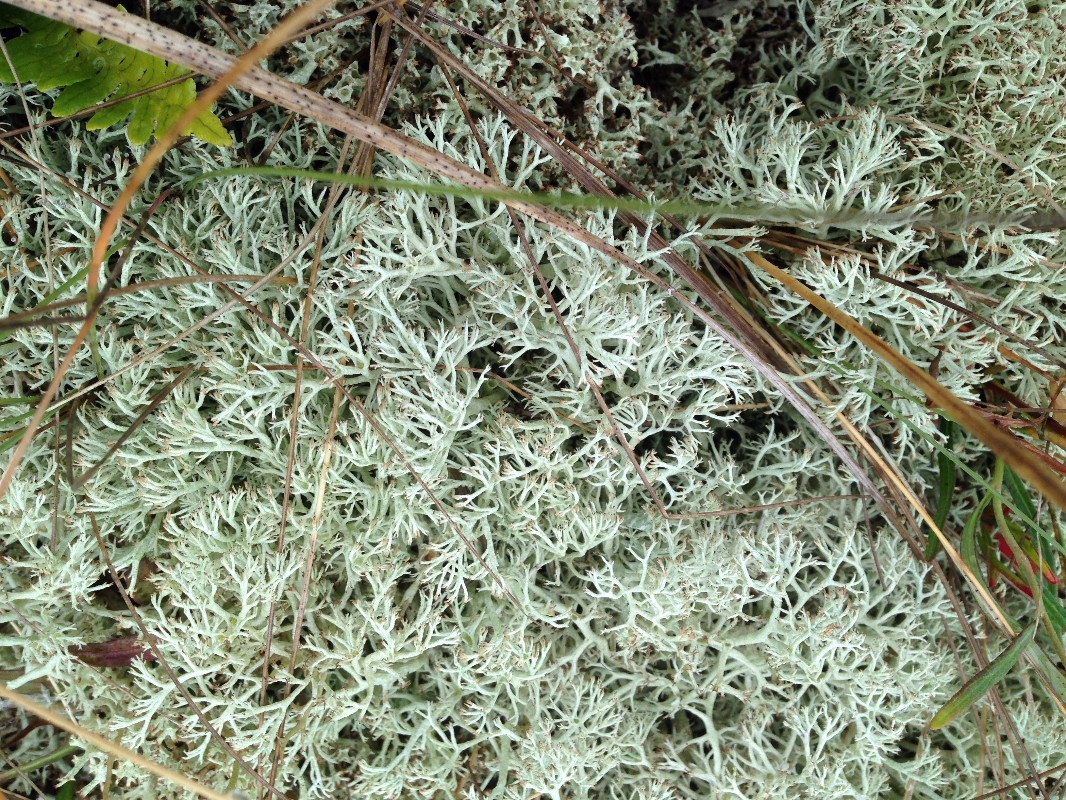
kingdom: Fungi
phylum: Ascomycota
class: Lecanoromycetes
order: Lecanorales
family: Cladoniaceae
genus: Cladonia
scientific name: Cladonia
